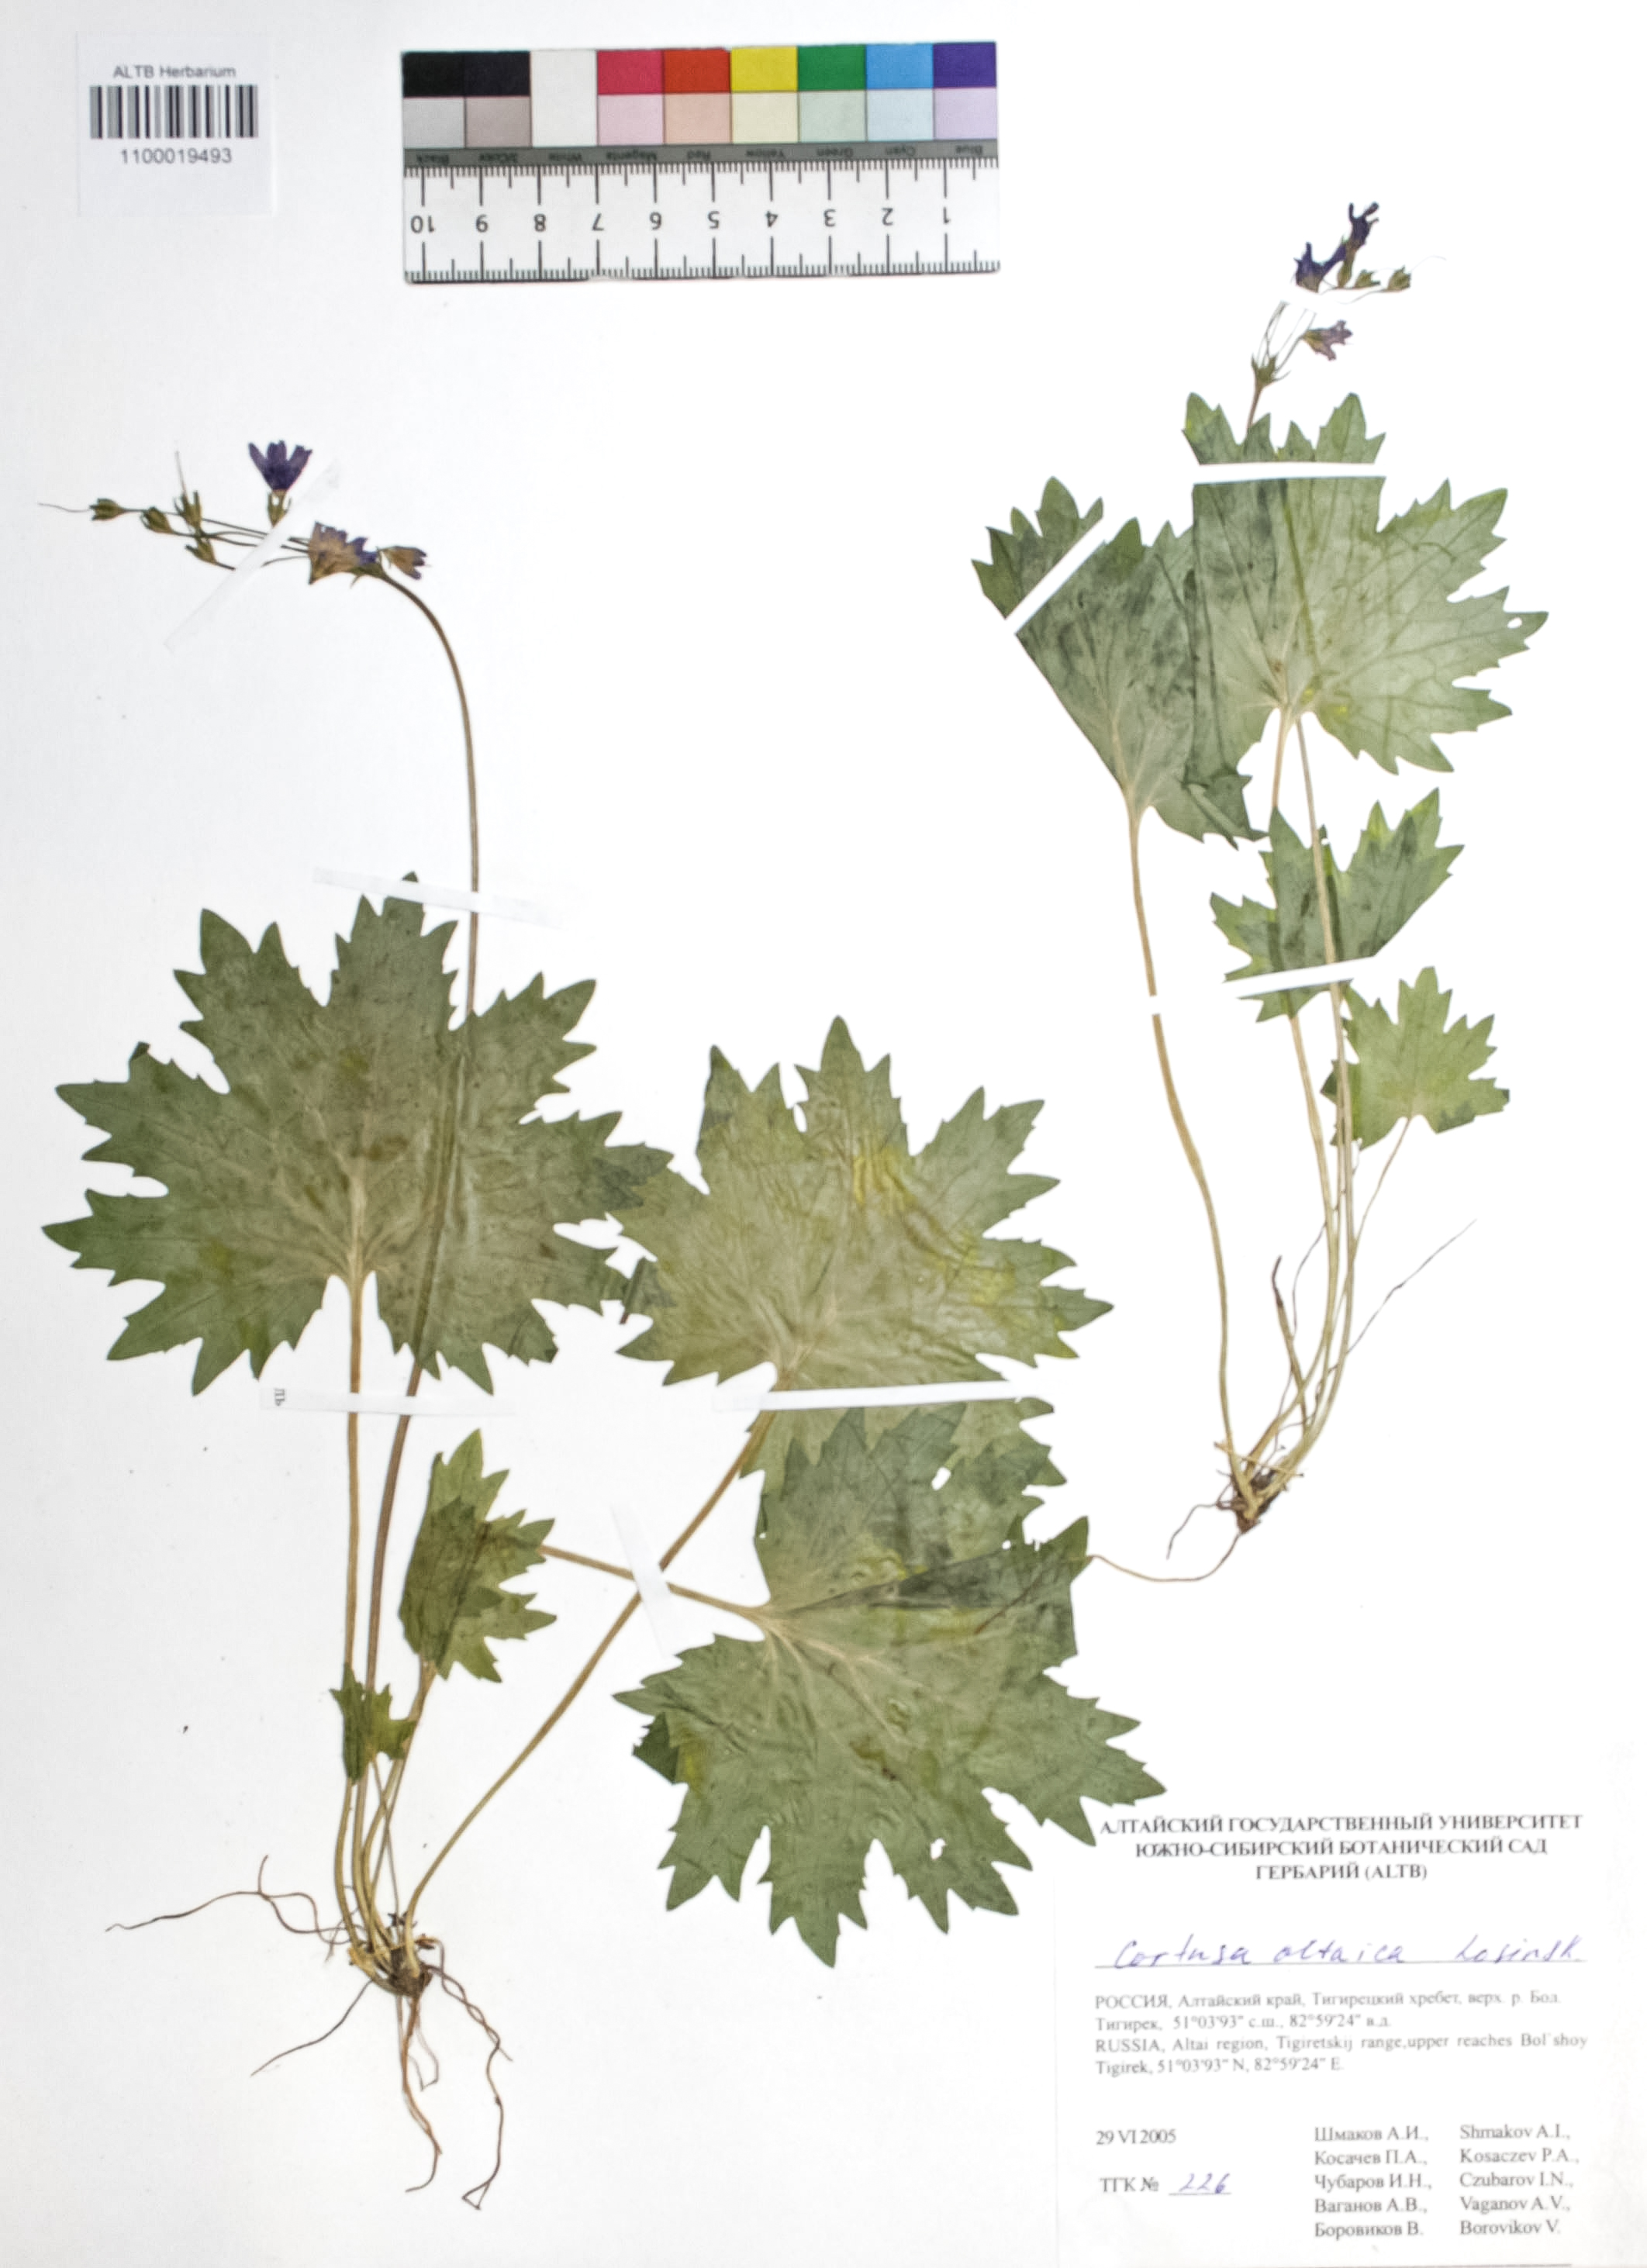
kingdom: Plantae
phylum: Tracheophyta
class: Magnoliopsida
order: Ericales
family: Primulaceae
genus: Primula
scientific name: Primula matthioli
